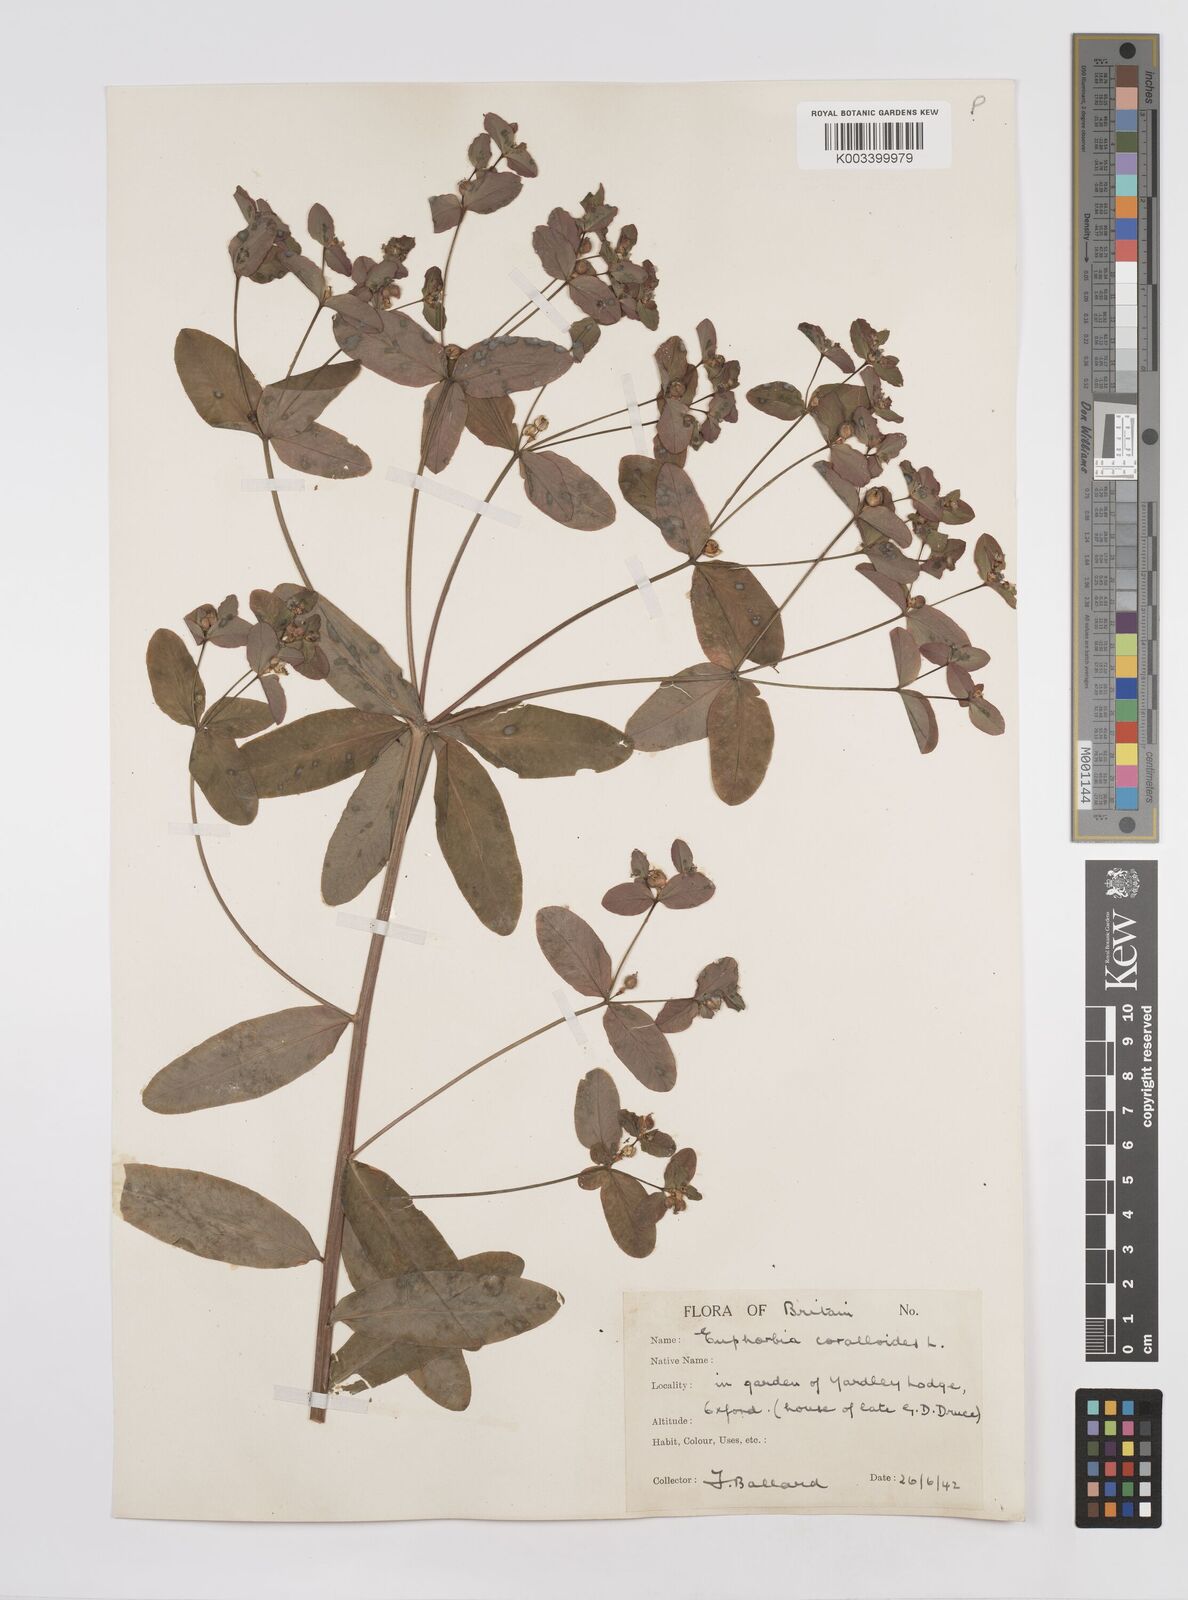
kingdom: Plantae
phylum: Tracheophyta
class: Magnoliopsida
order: Malpighiales
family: Euphorbiaceae
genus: Euphorbia
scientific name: Euphorbia corallioides
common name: Coral spurge
